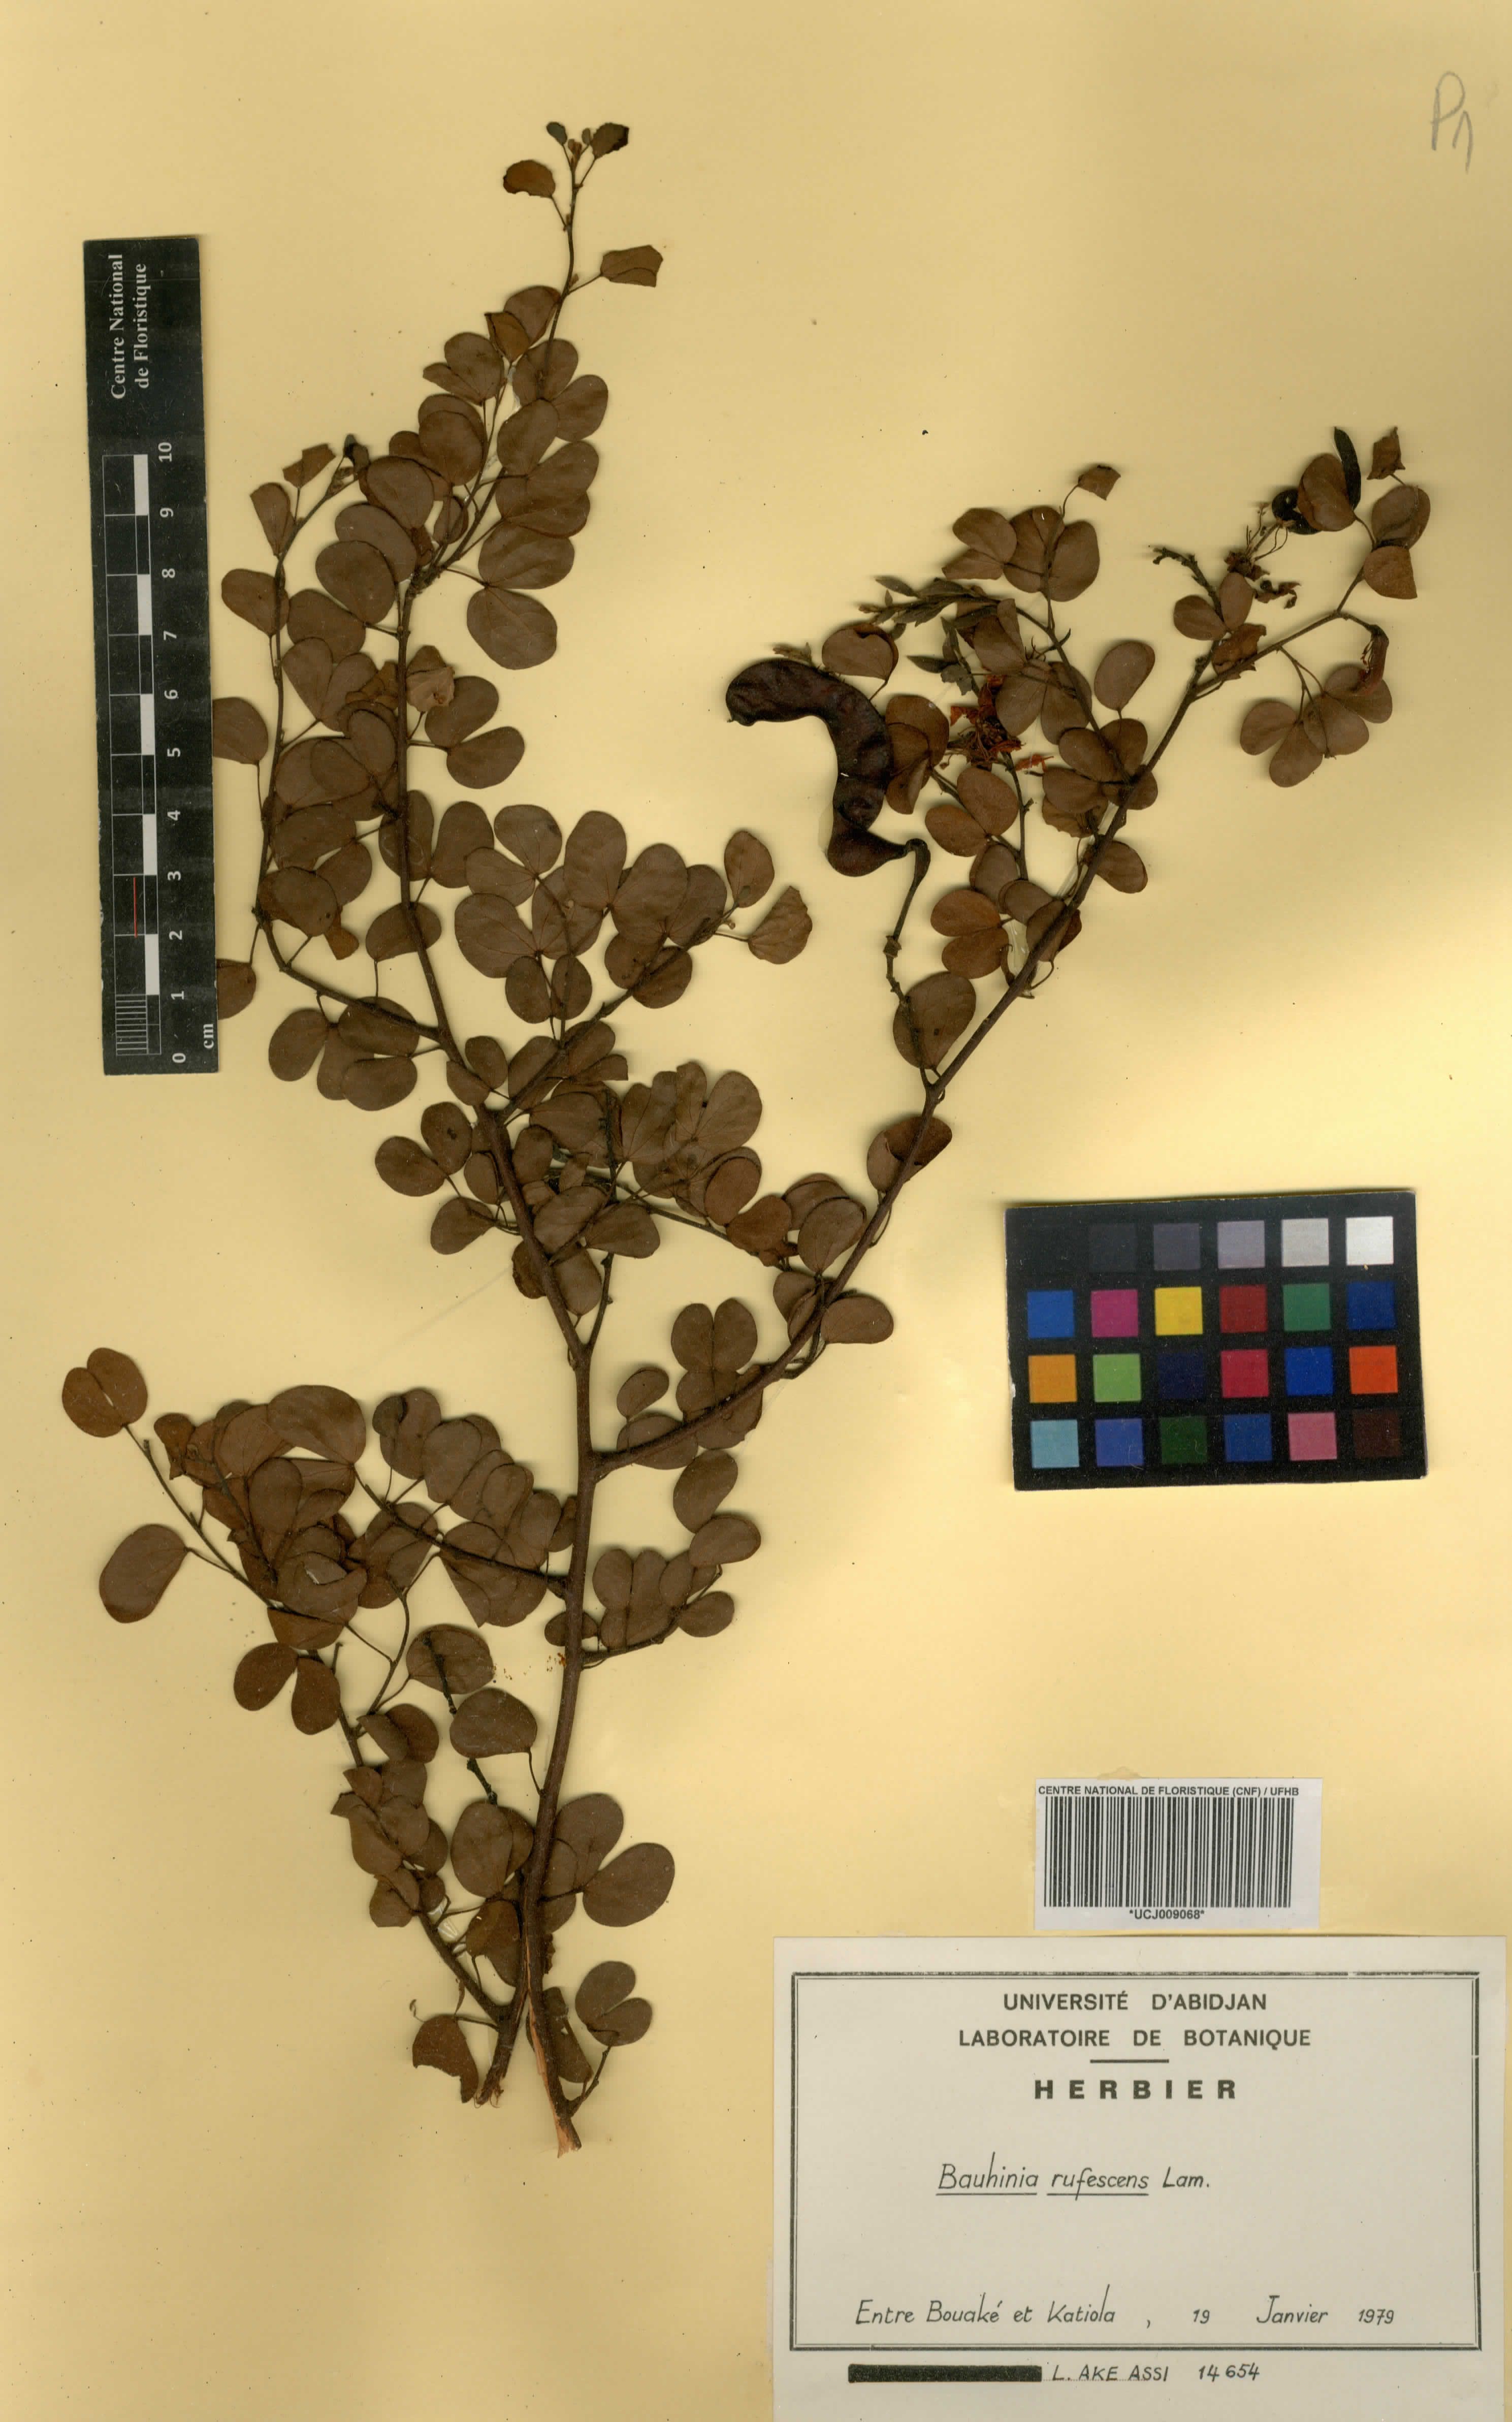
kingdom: Plantae
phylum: Tracheophyta
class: Magnoliopsida
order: Fabales
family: Fabaceae
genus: Bauhinia
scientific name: Bauhinia rufescens
